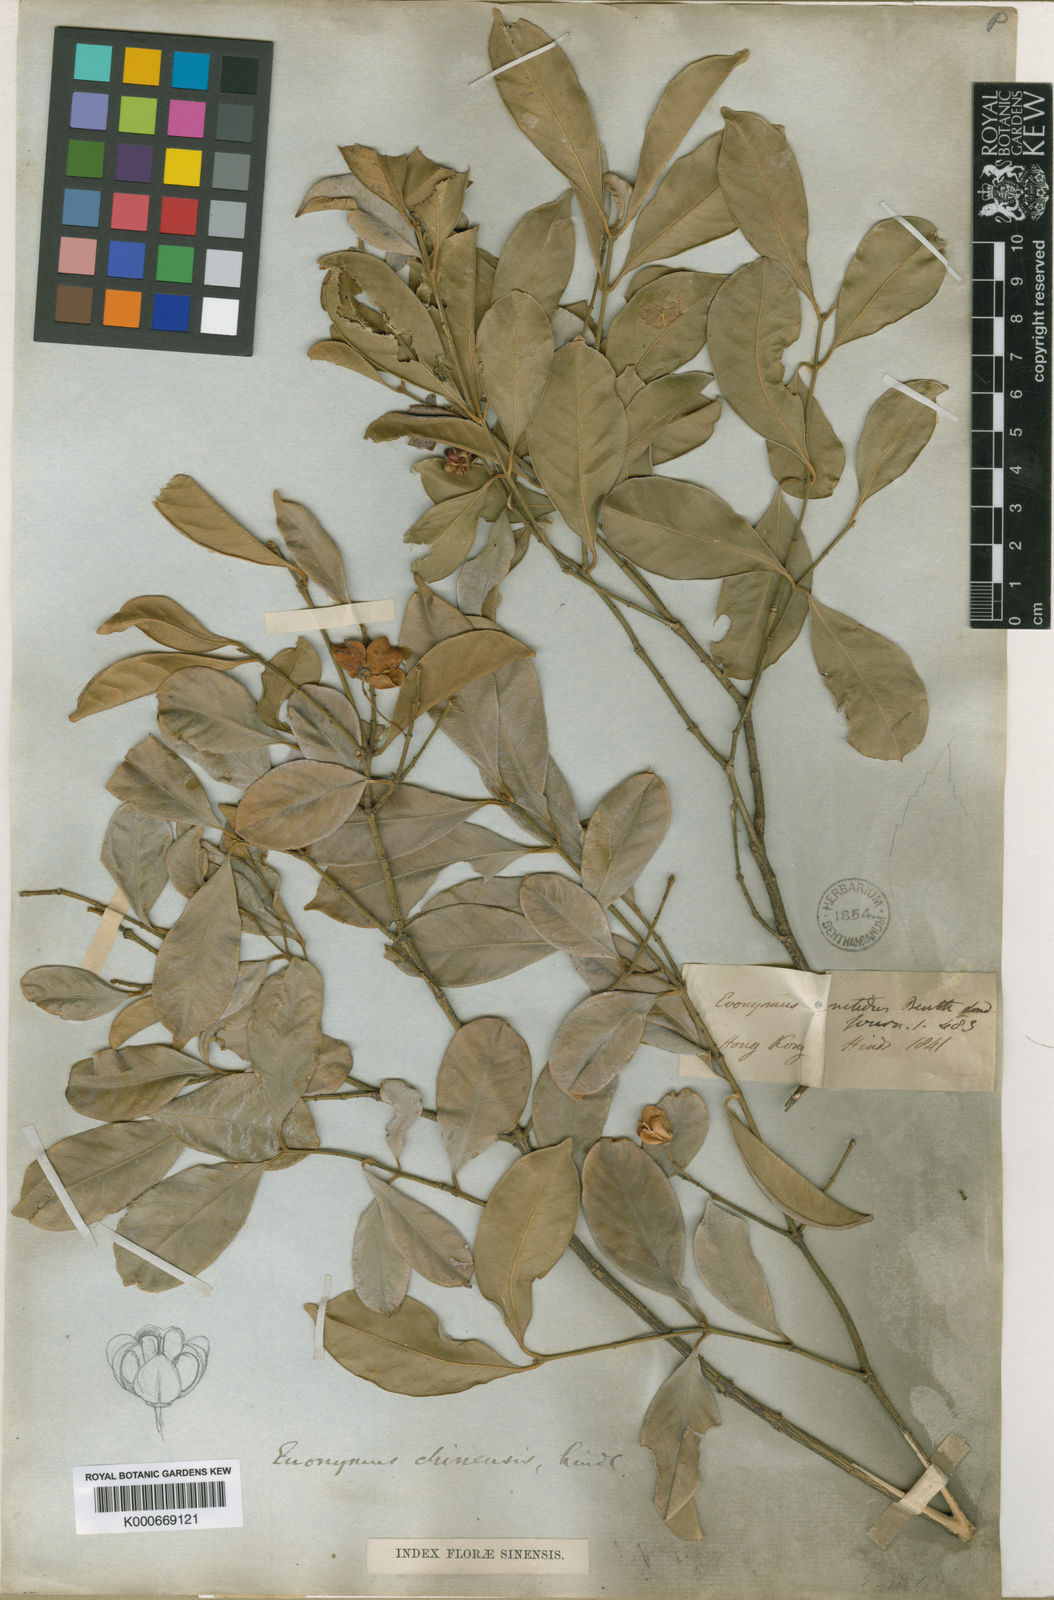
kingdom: Plantae
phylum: Tracheophyta
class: Magnoliopsida
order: Celastrales
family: Celastraceae
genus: Euonymus
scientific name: Euonymus nitidus
